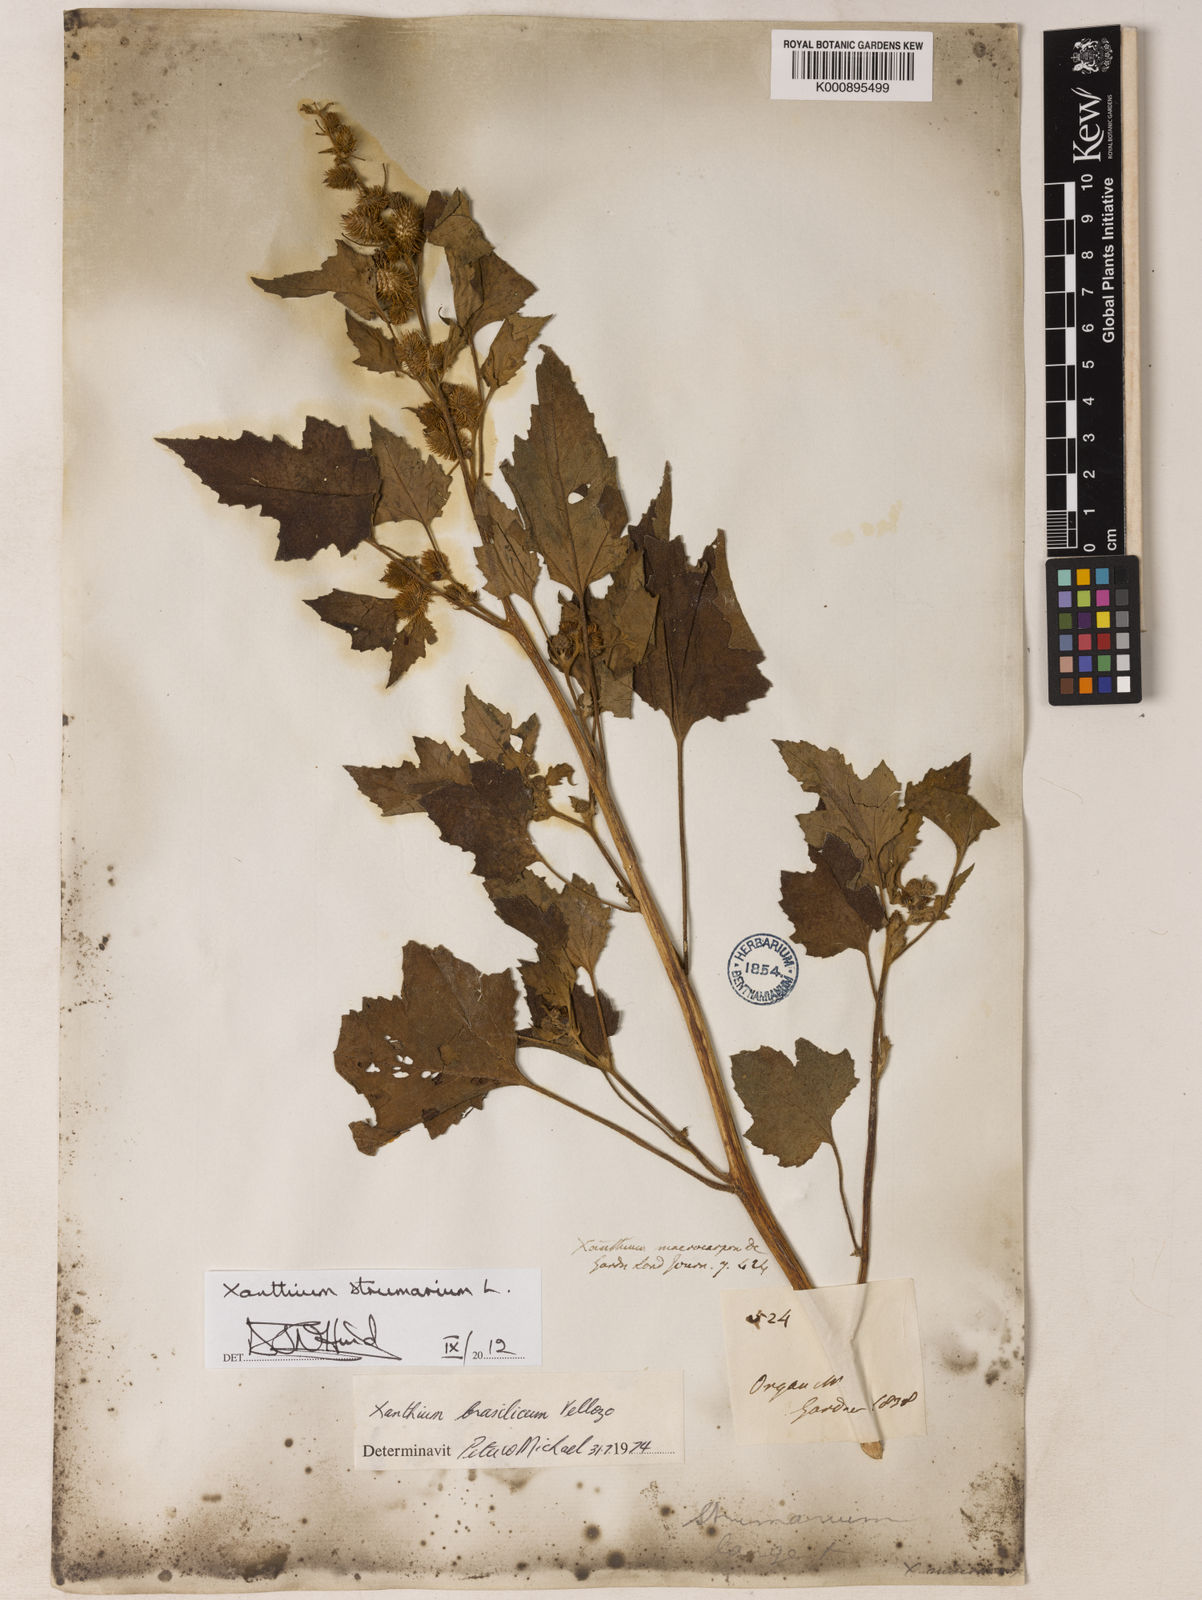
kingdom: Plantae
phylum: Tracheophyta
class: Magnoliopsida
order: Asterales
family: Asteraceae
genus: Xanthium
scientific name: Xanthium strumarium
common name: Rough cocklebur
